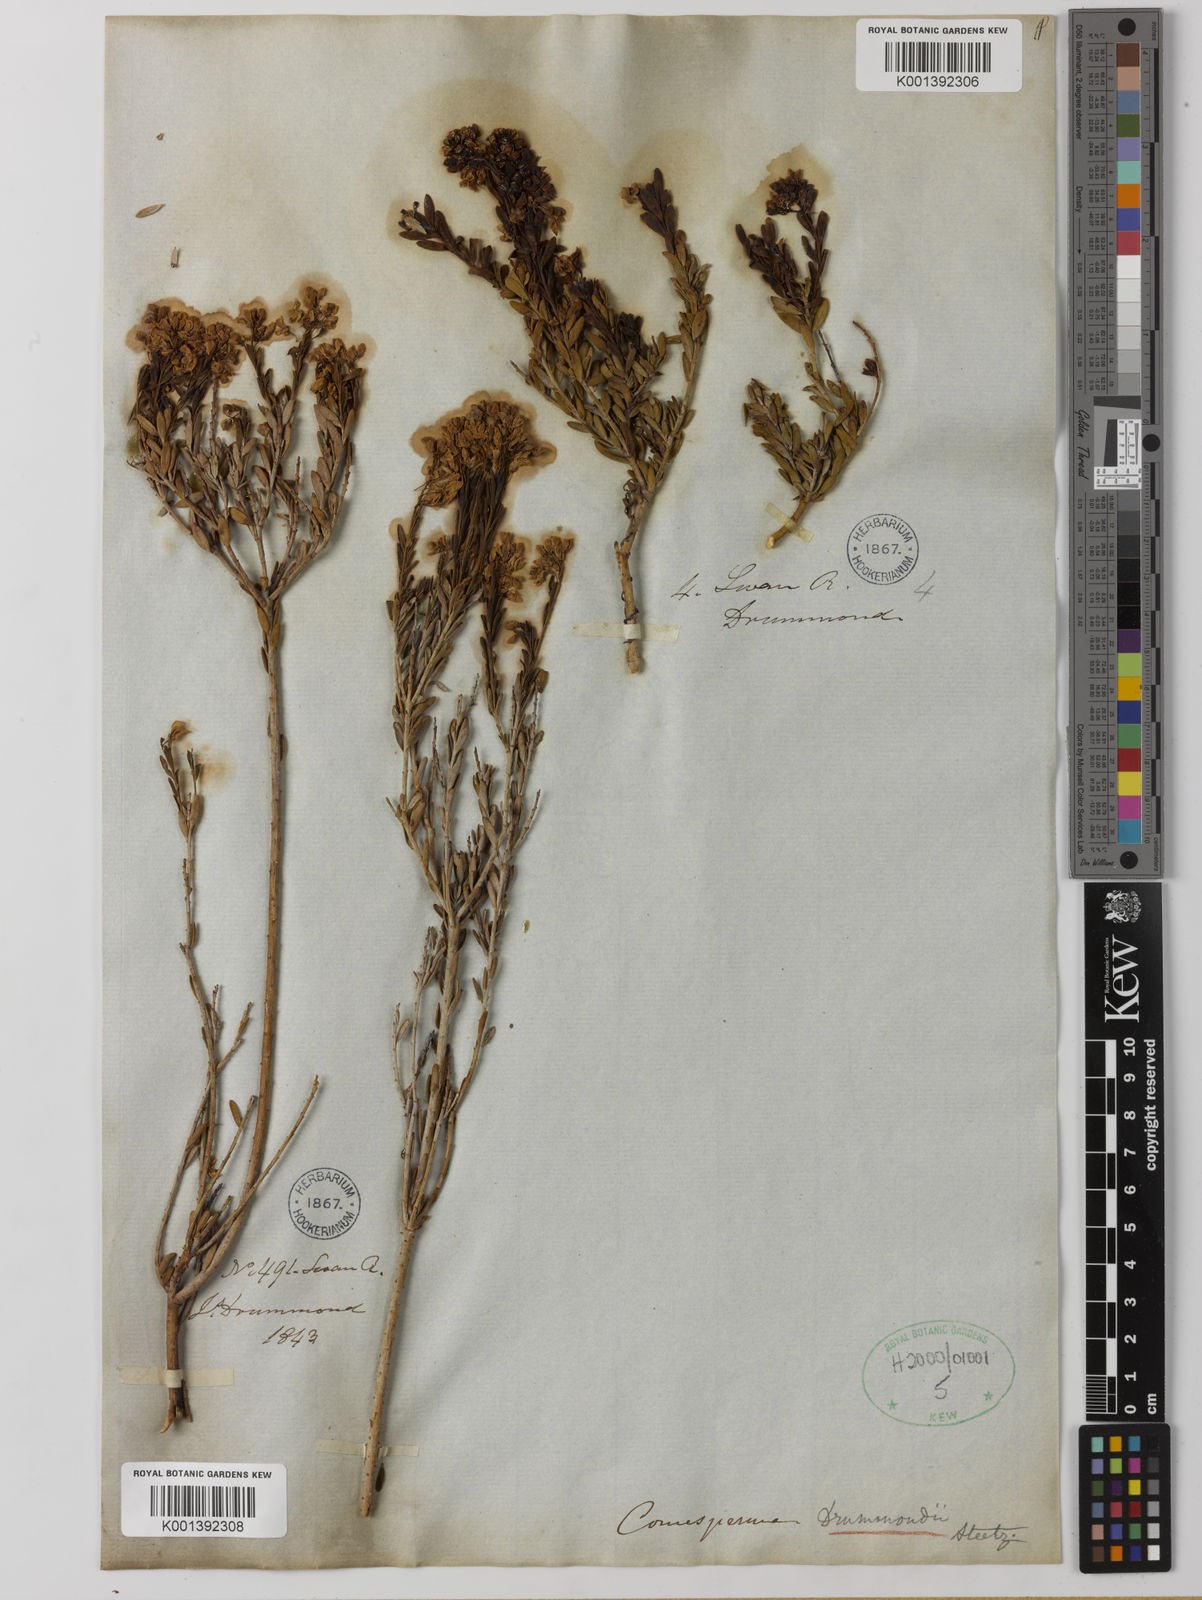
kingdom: Plantae
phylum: Tracheophyta
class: Magnoliopsida
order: Fabales
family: Polygalaceae
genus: Comesperma
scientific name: Comesperma drummondii
